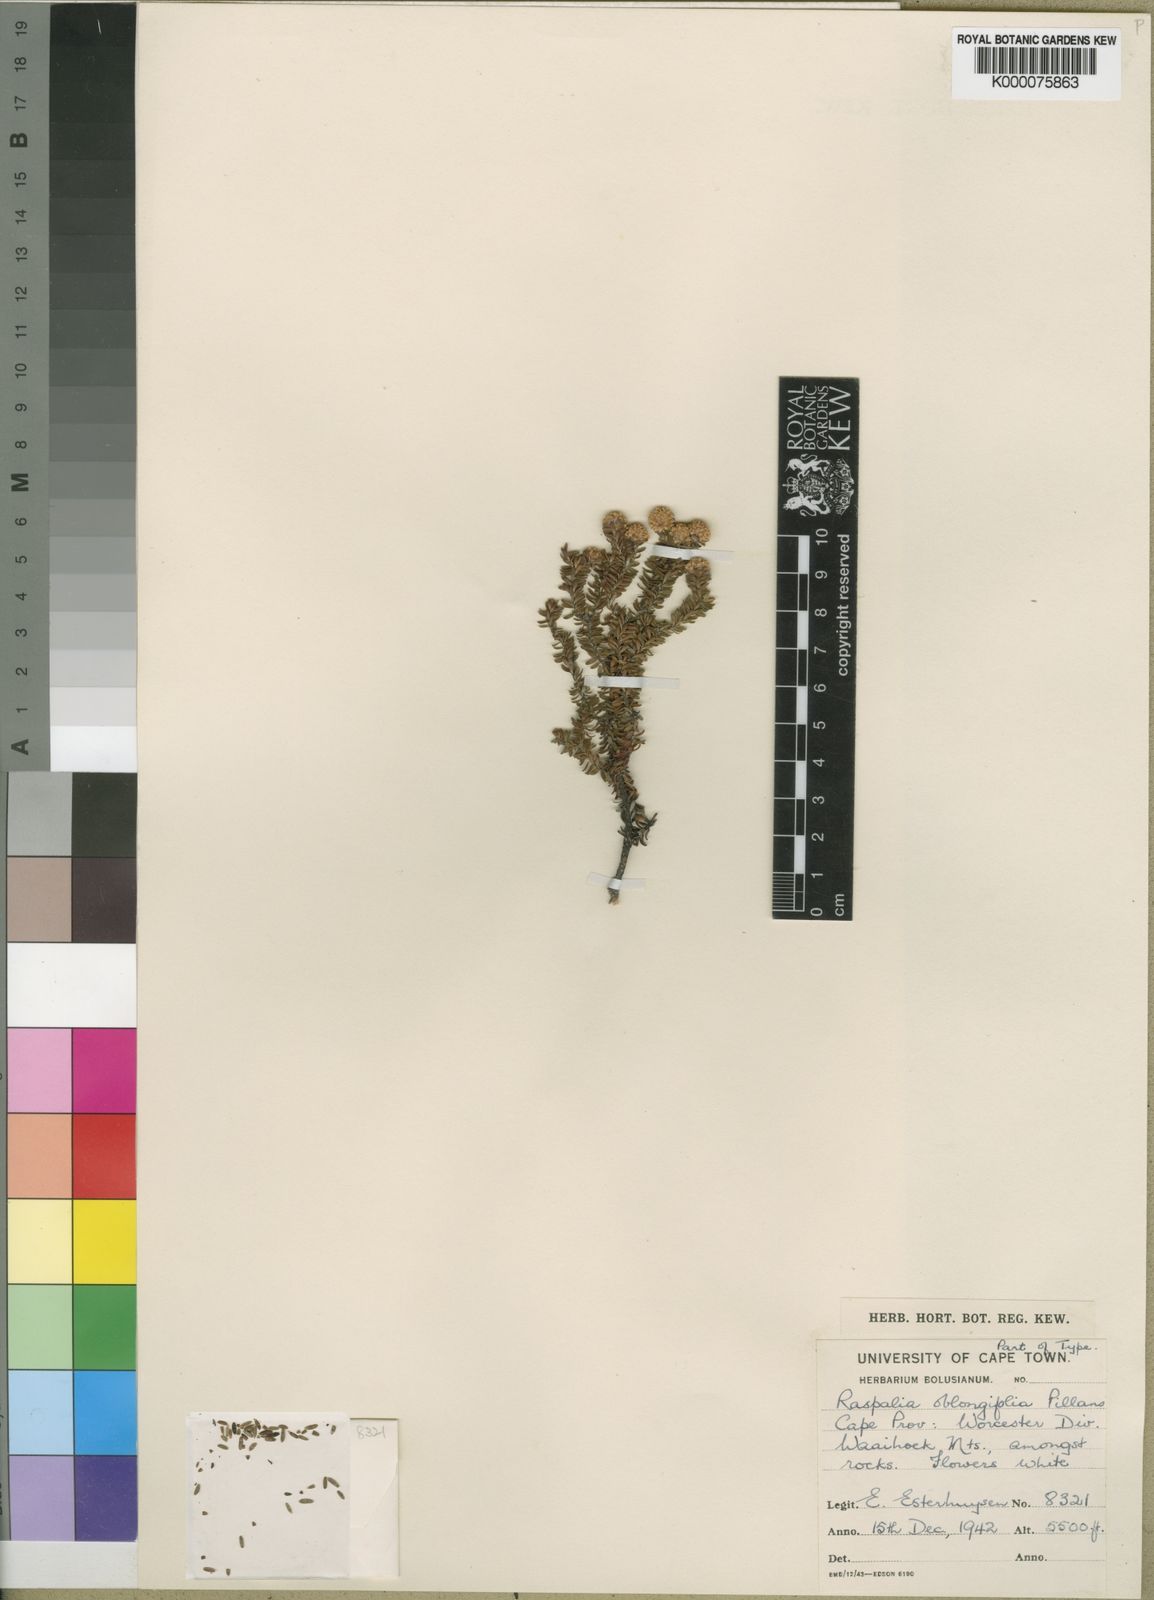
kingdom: Plantae
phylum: Tracheophyta
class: Magnoliopsida
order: Bruniales
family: Bruniaceae
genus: Brunia
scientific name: Brunia oblongifolia
